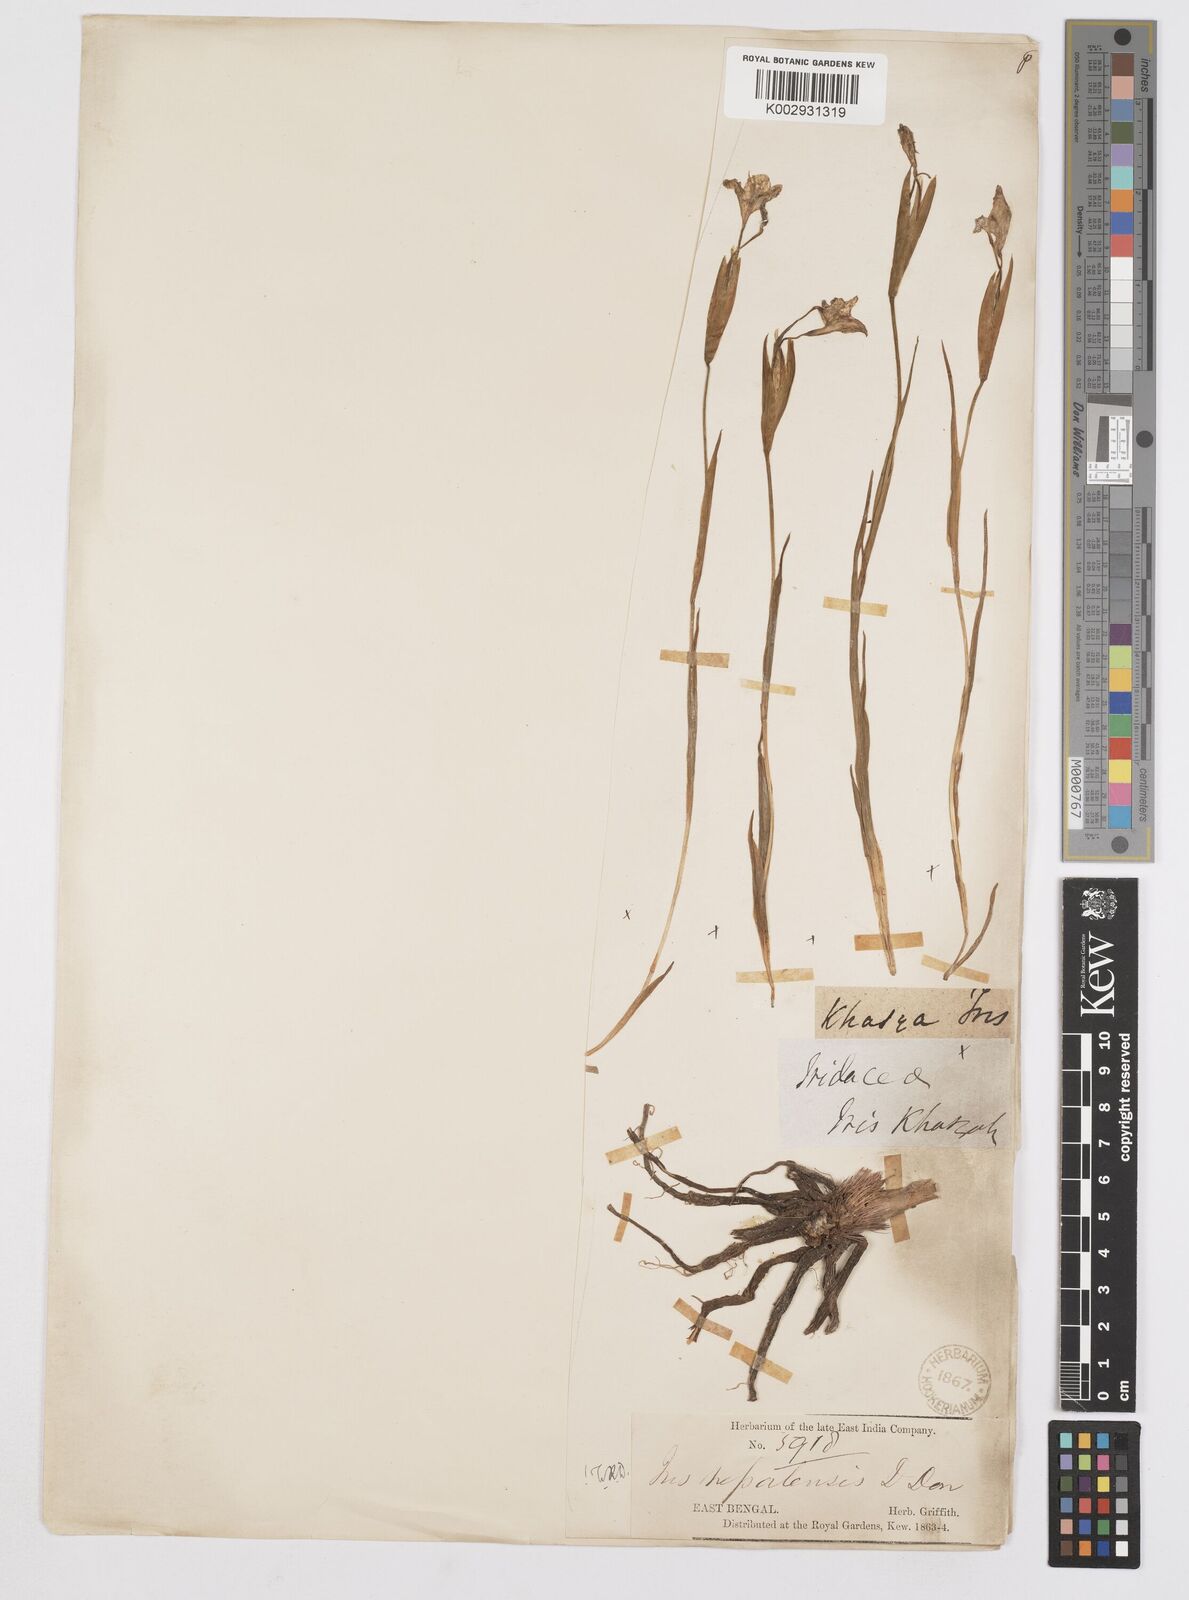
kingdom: Plantae
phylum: Tracheophyta
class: Liliopsida
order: Asparagales
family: Iridaceae
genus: Iris
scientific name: Iris decora
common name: Nepal iris
